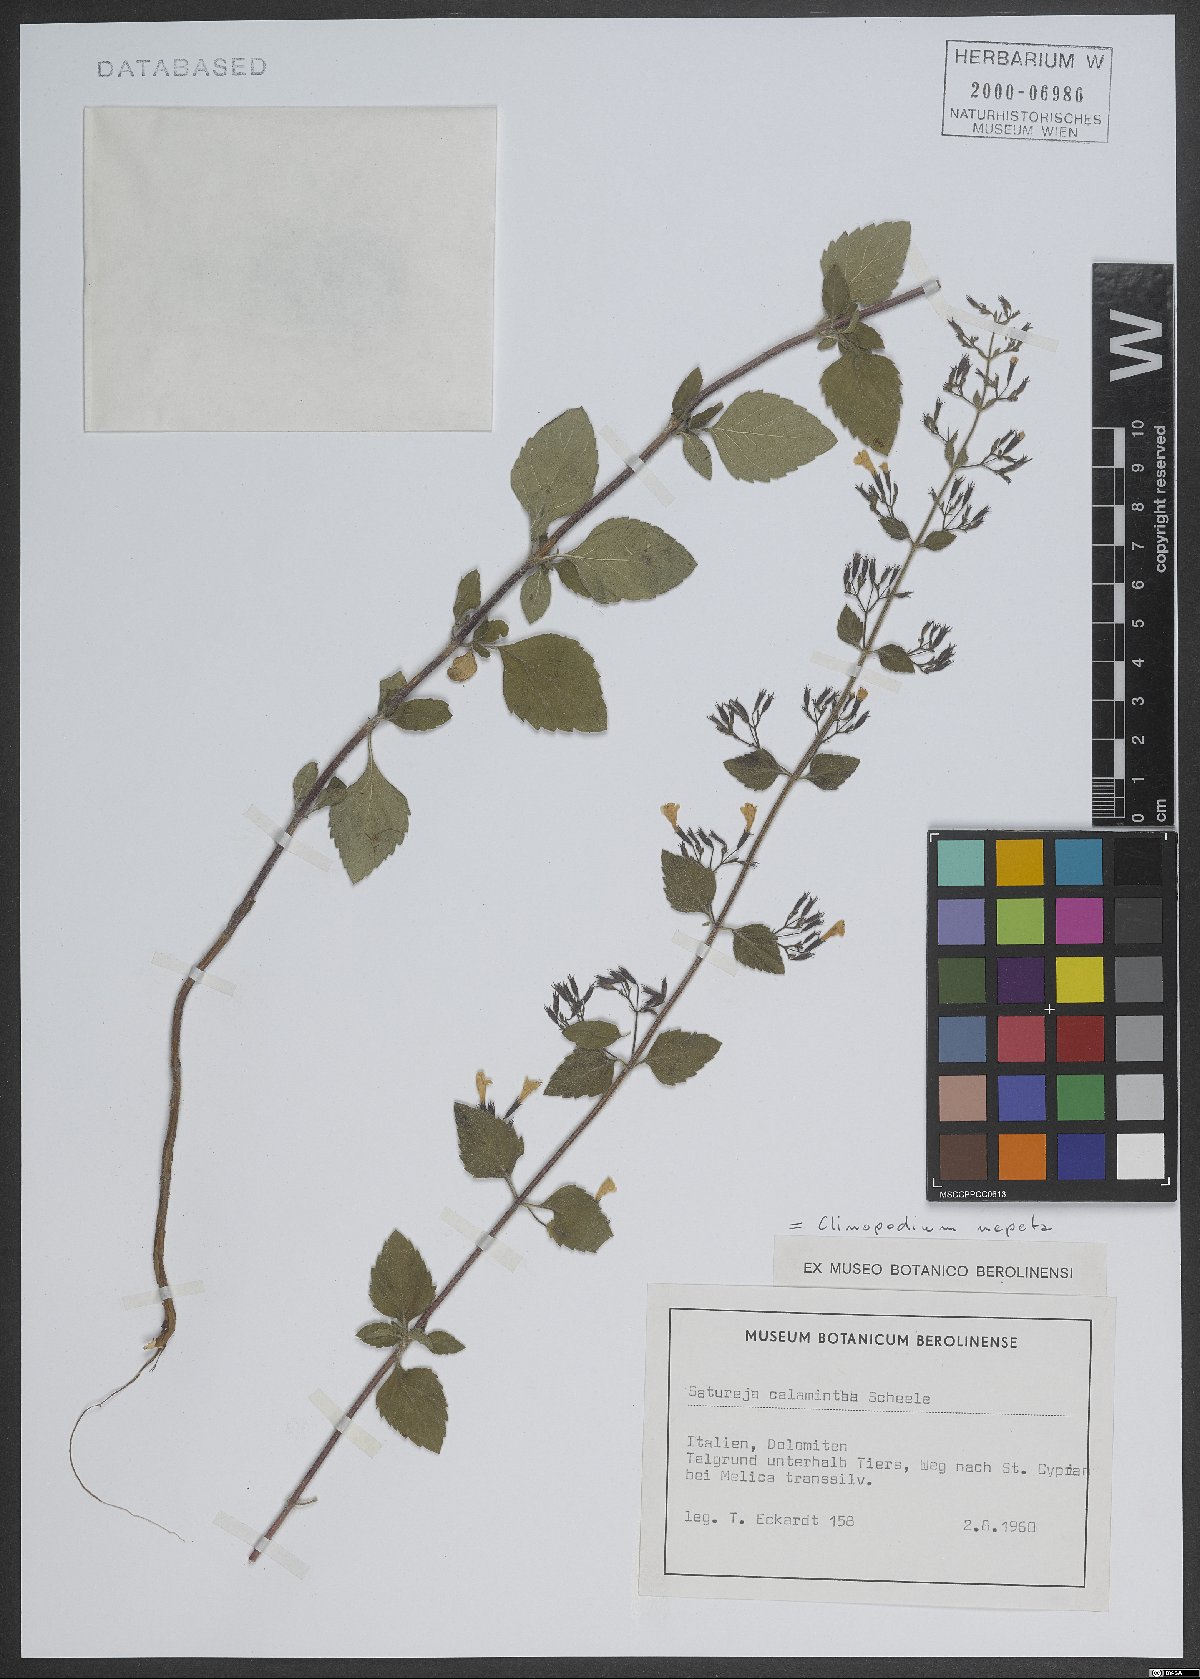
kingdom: Plantae
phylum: Tracheophyta
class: Magnoliopsida
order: Lamiales
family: Lamiaceae
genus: Clinopodium
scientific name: Clinopodium nepeta
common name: Lesser calamint
